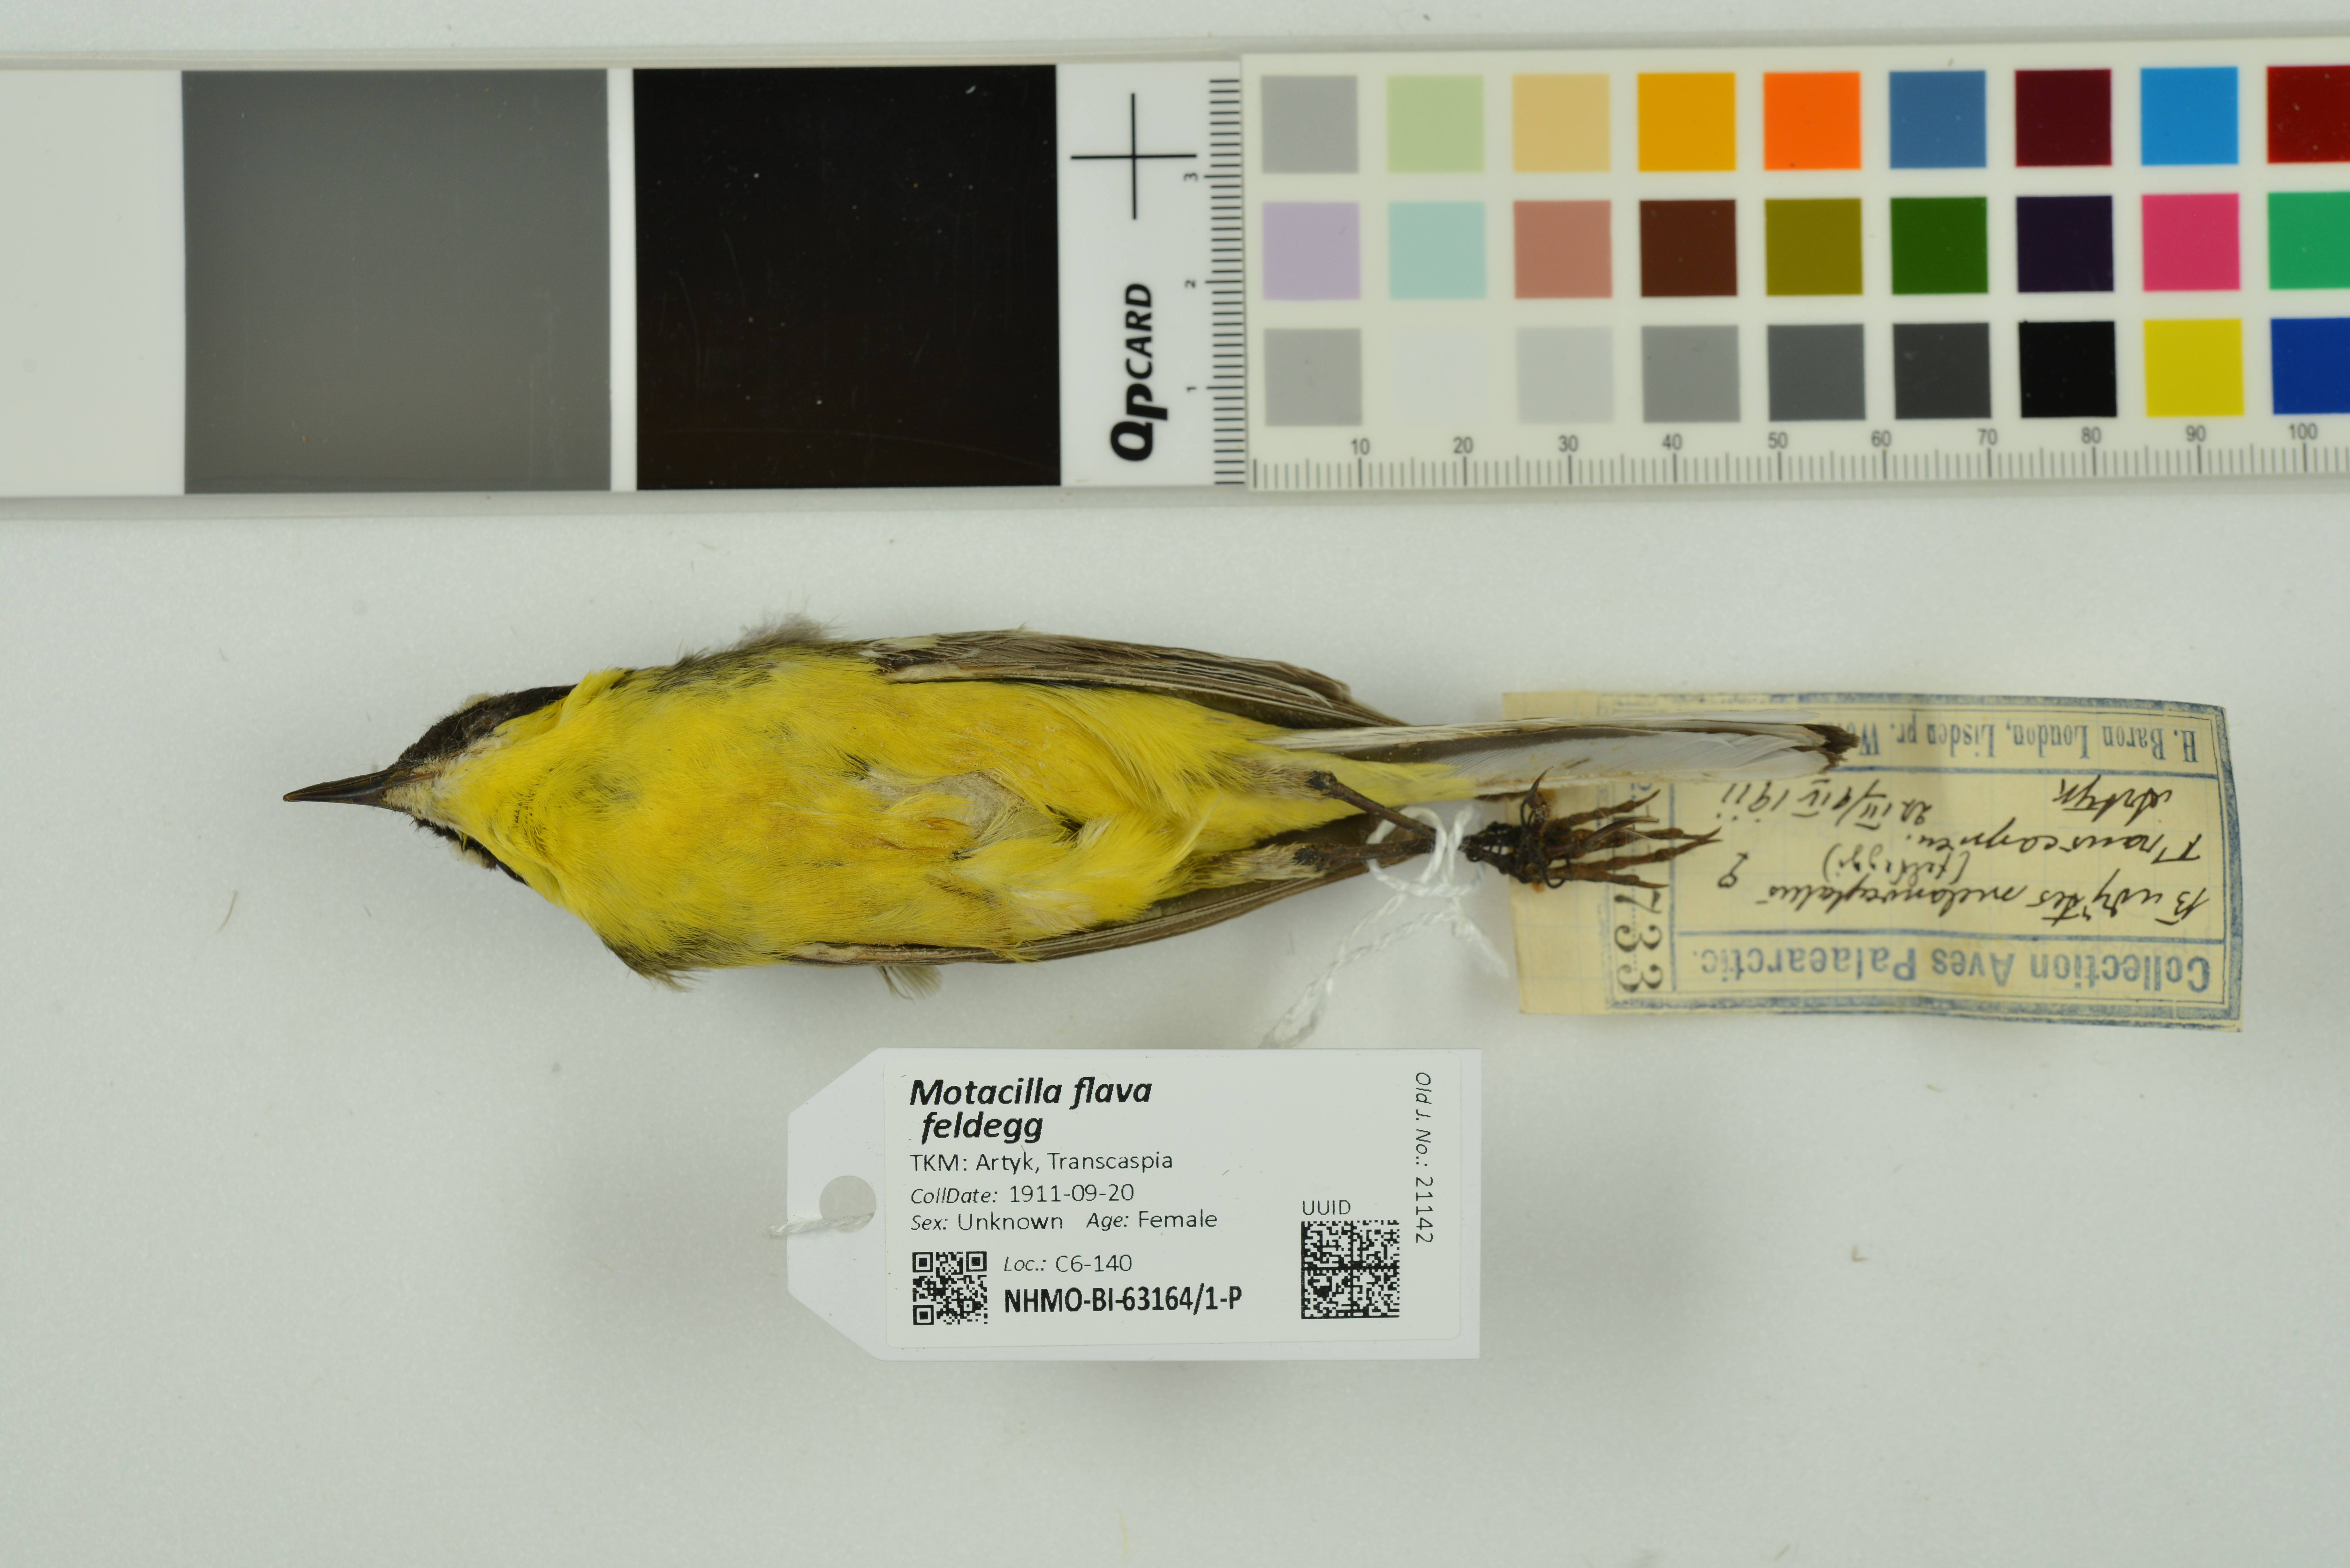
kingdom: Animalia
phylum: Chordata
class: Aves
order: Passeriformes
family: Motacillidae
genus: Motacilla
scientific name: Motacilla flava
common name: Western yellow wagtail
